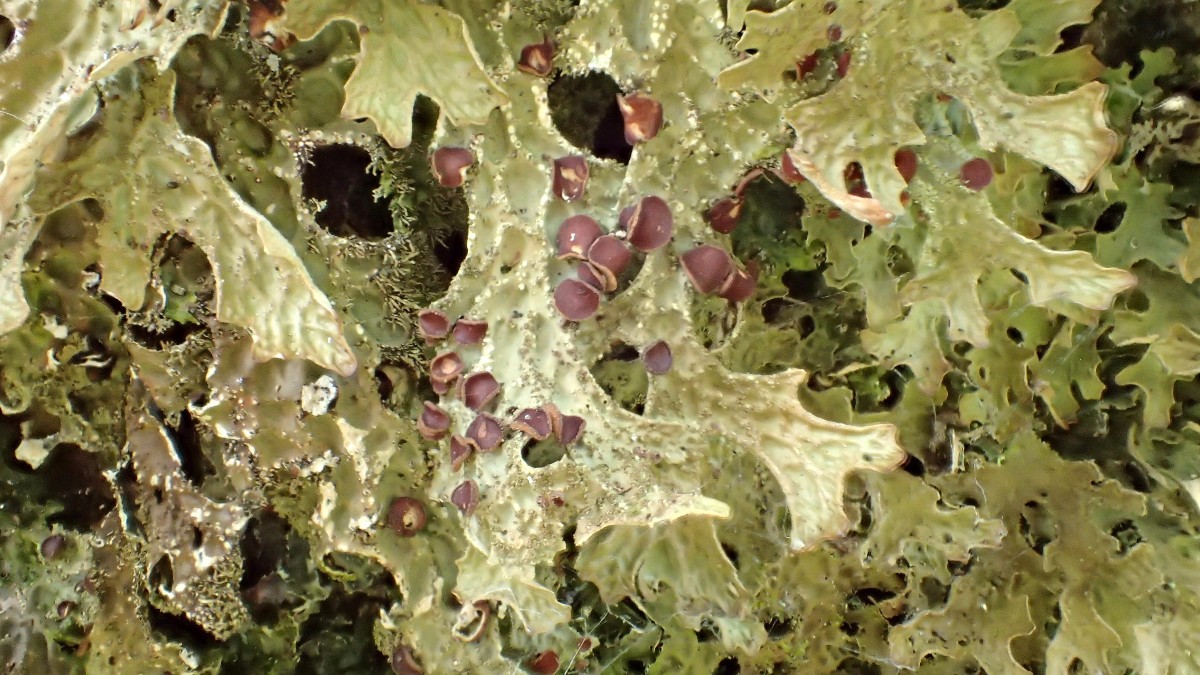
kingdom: Fungi
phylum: Ascomycota
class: Lecanoromycetes
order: Peltigerales
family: Lobariaceae
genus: Lobaria
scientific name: Lobaria pulmonaria
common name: almindelig lungelav
